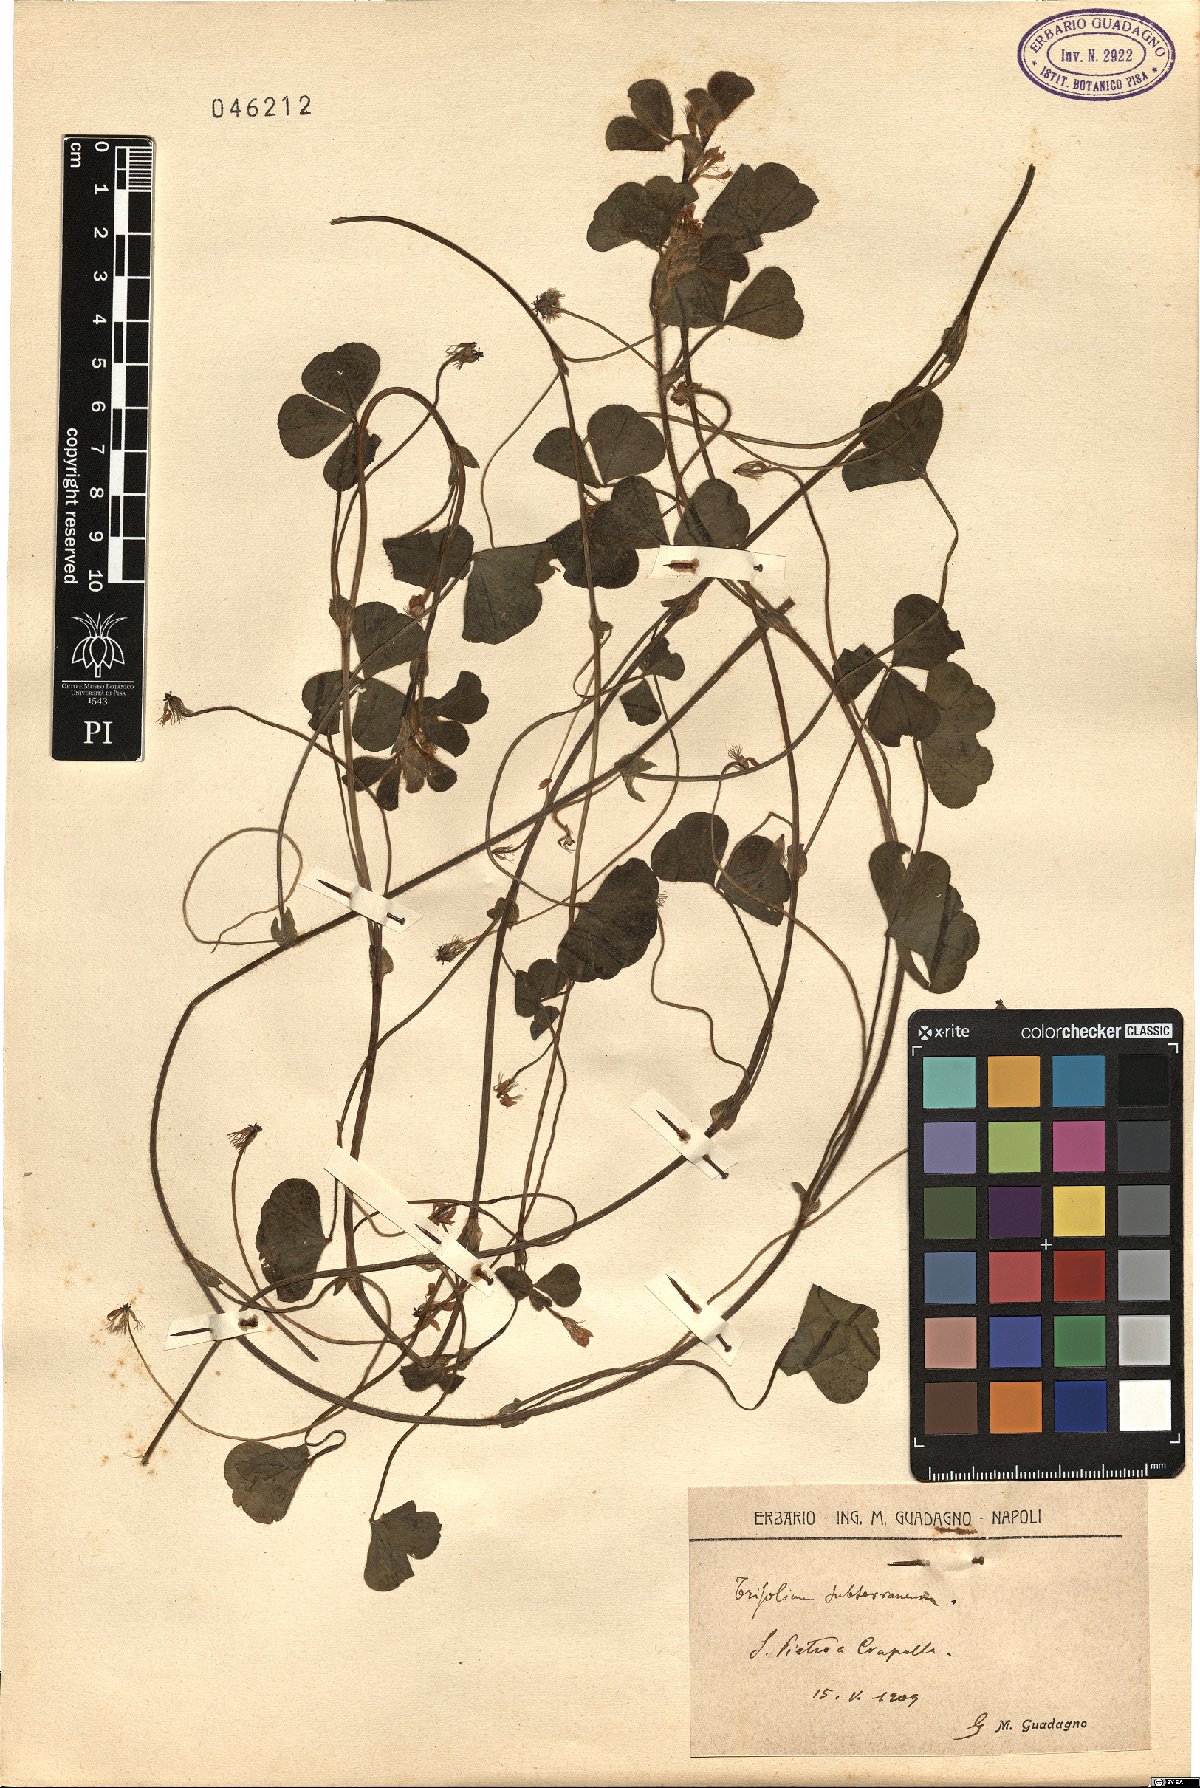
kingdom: Plantae
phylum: Tracheophyta
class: Magnoliopsida
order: Fabales
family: Fabaceae
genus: Trifolium
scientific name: Trifolium subterraneum
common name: Subterranean clover
